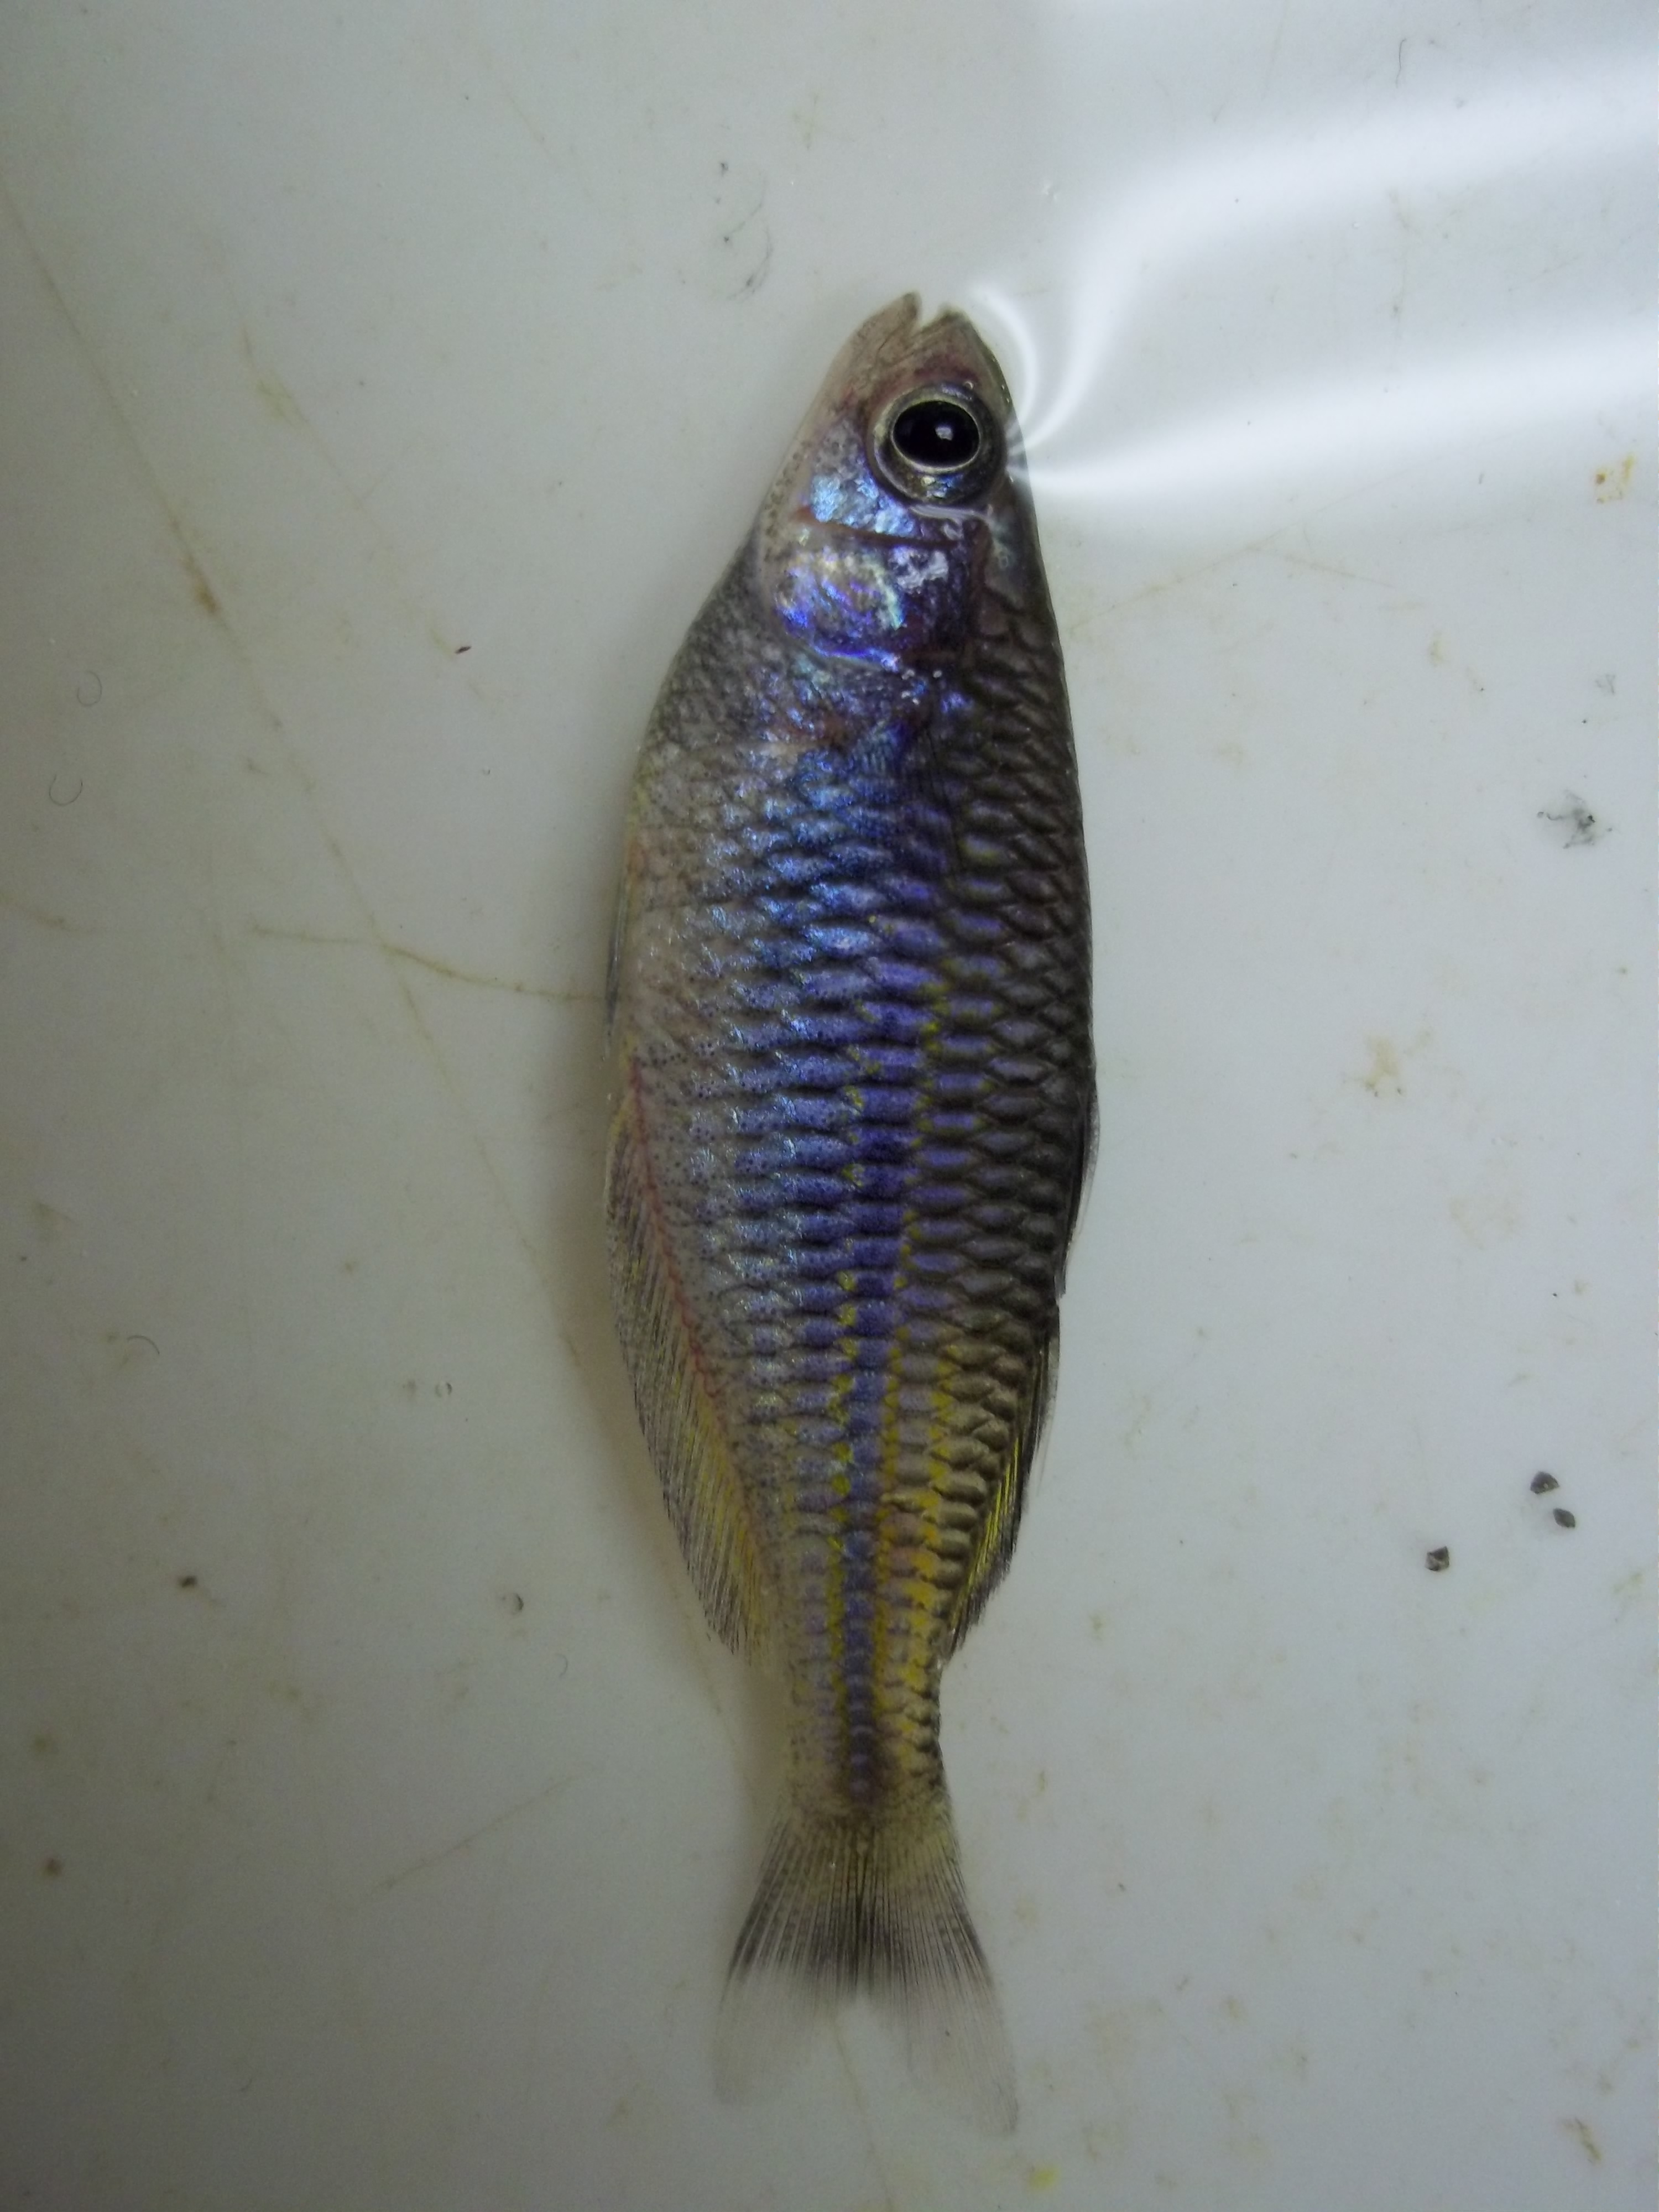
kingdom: Animalia
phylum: Chordata
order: Atheriniformes
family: Melanotaeniidae
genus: Melanotaenia
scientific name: Melanotaenia boesemani
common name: Boeseman's rainbowfish
